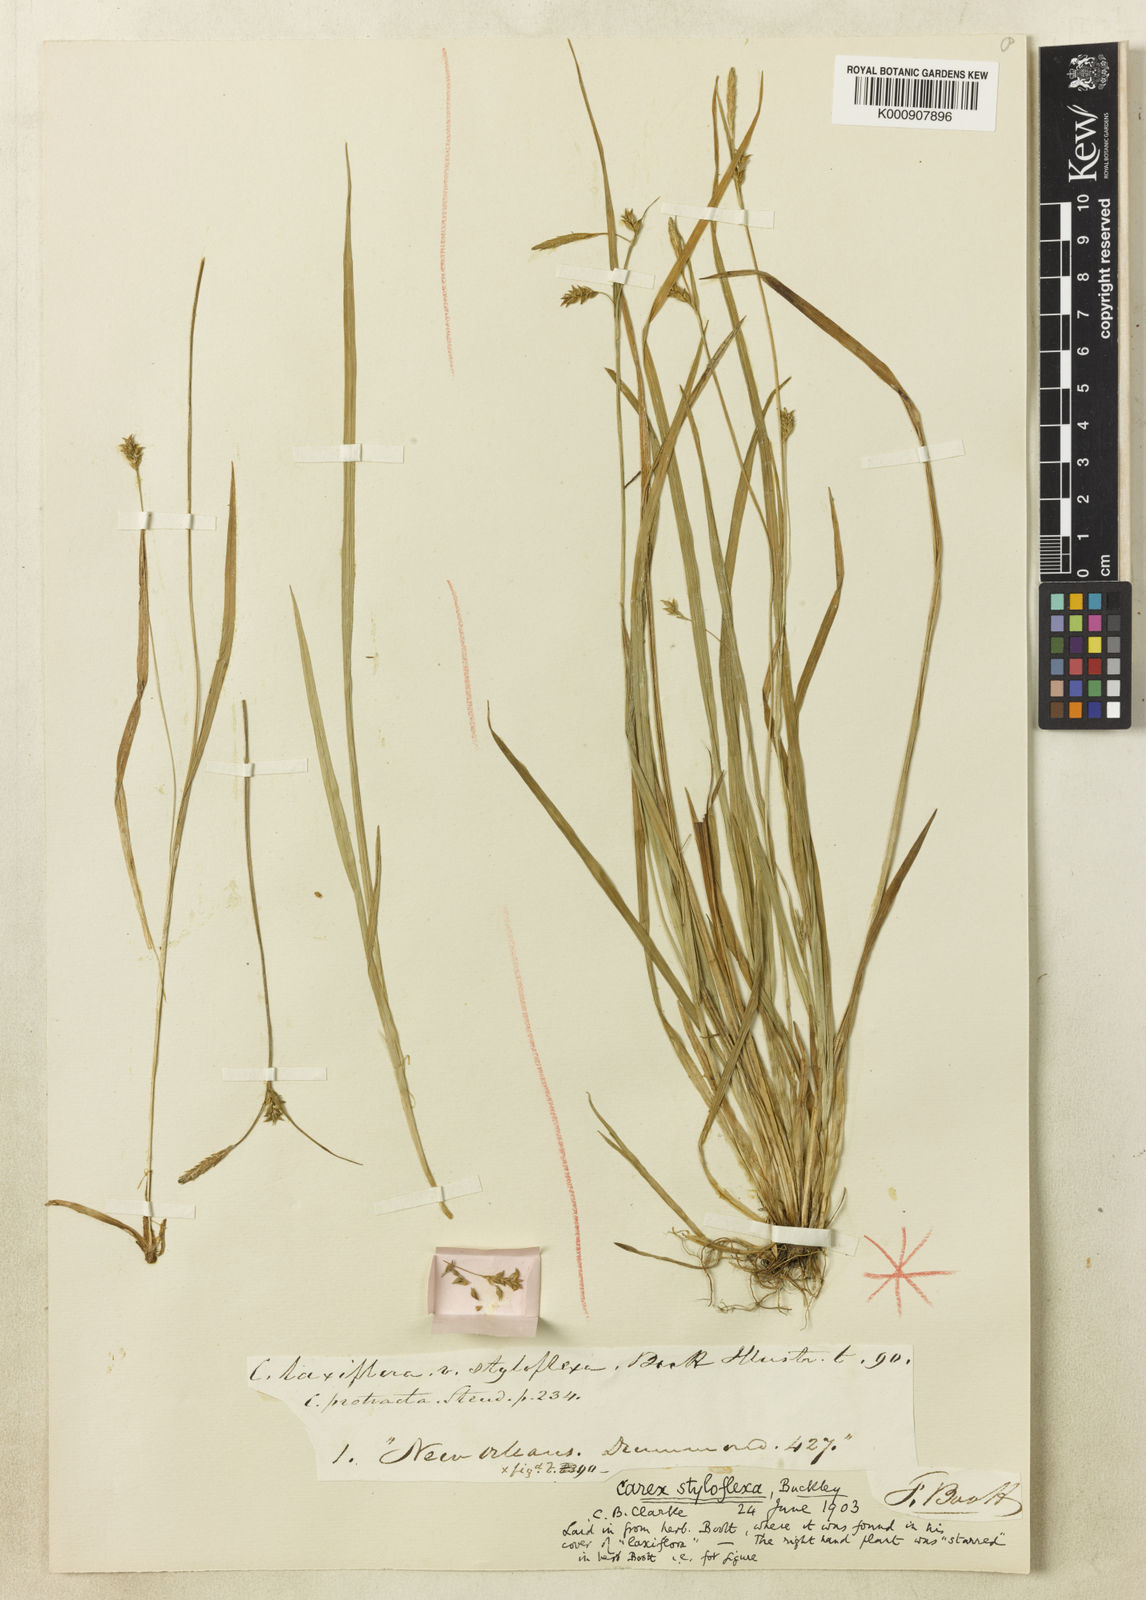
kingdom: Plantae
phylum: Tracheophyta
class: Liliopsida
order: Poales
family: Cyperaceae
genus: Carex
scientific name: Carex styloflexa
